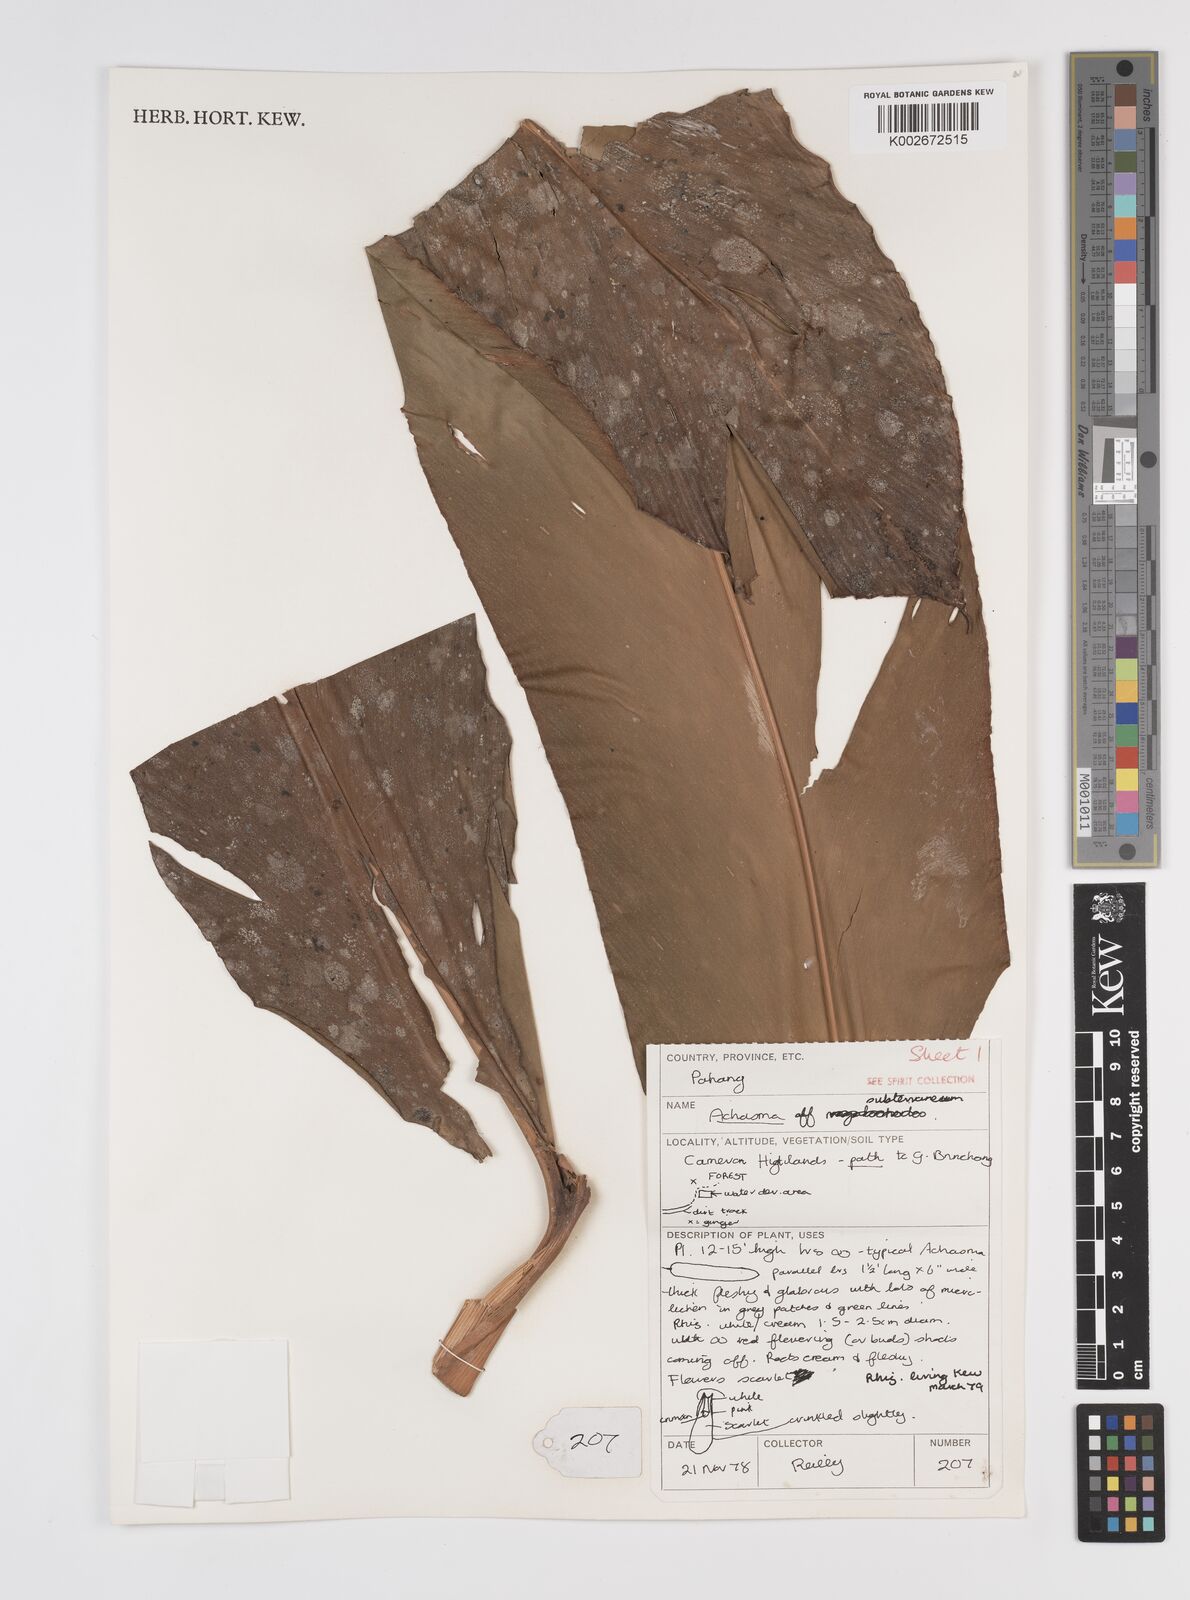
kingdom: Plantae
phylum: Tracheophyta
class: Liliopsida
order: Zingiberales
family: Zingiberaceae
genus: Etlingera
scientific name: Etlingera subterranea
